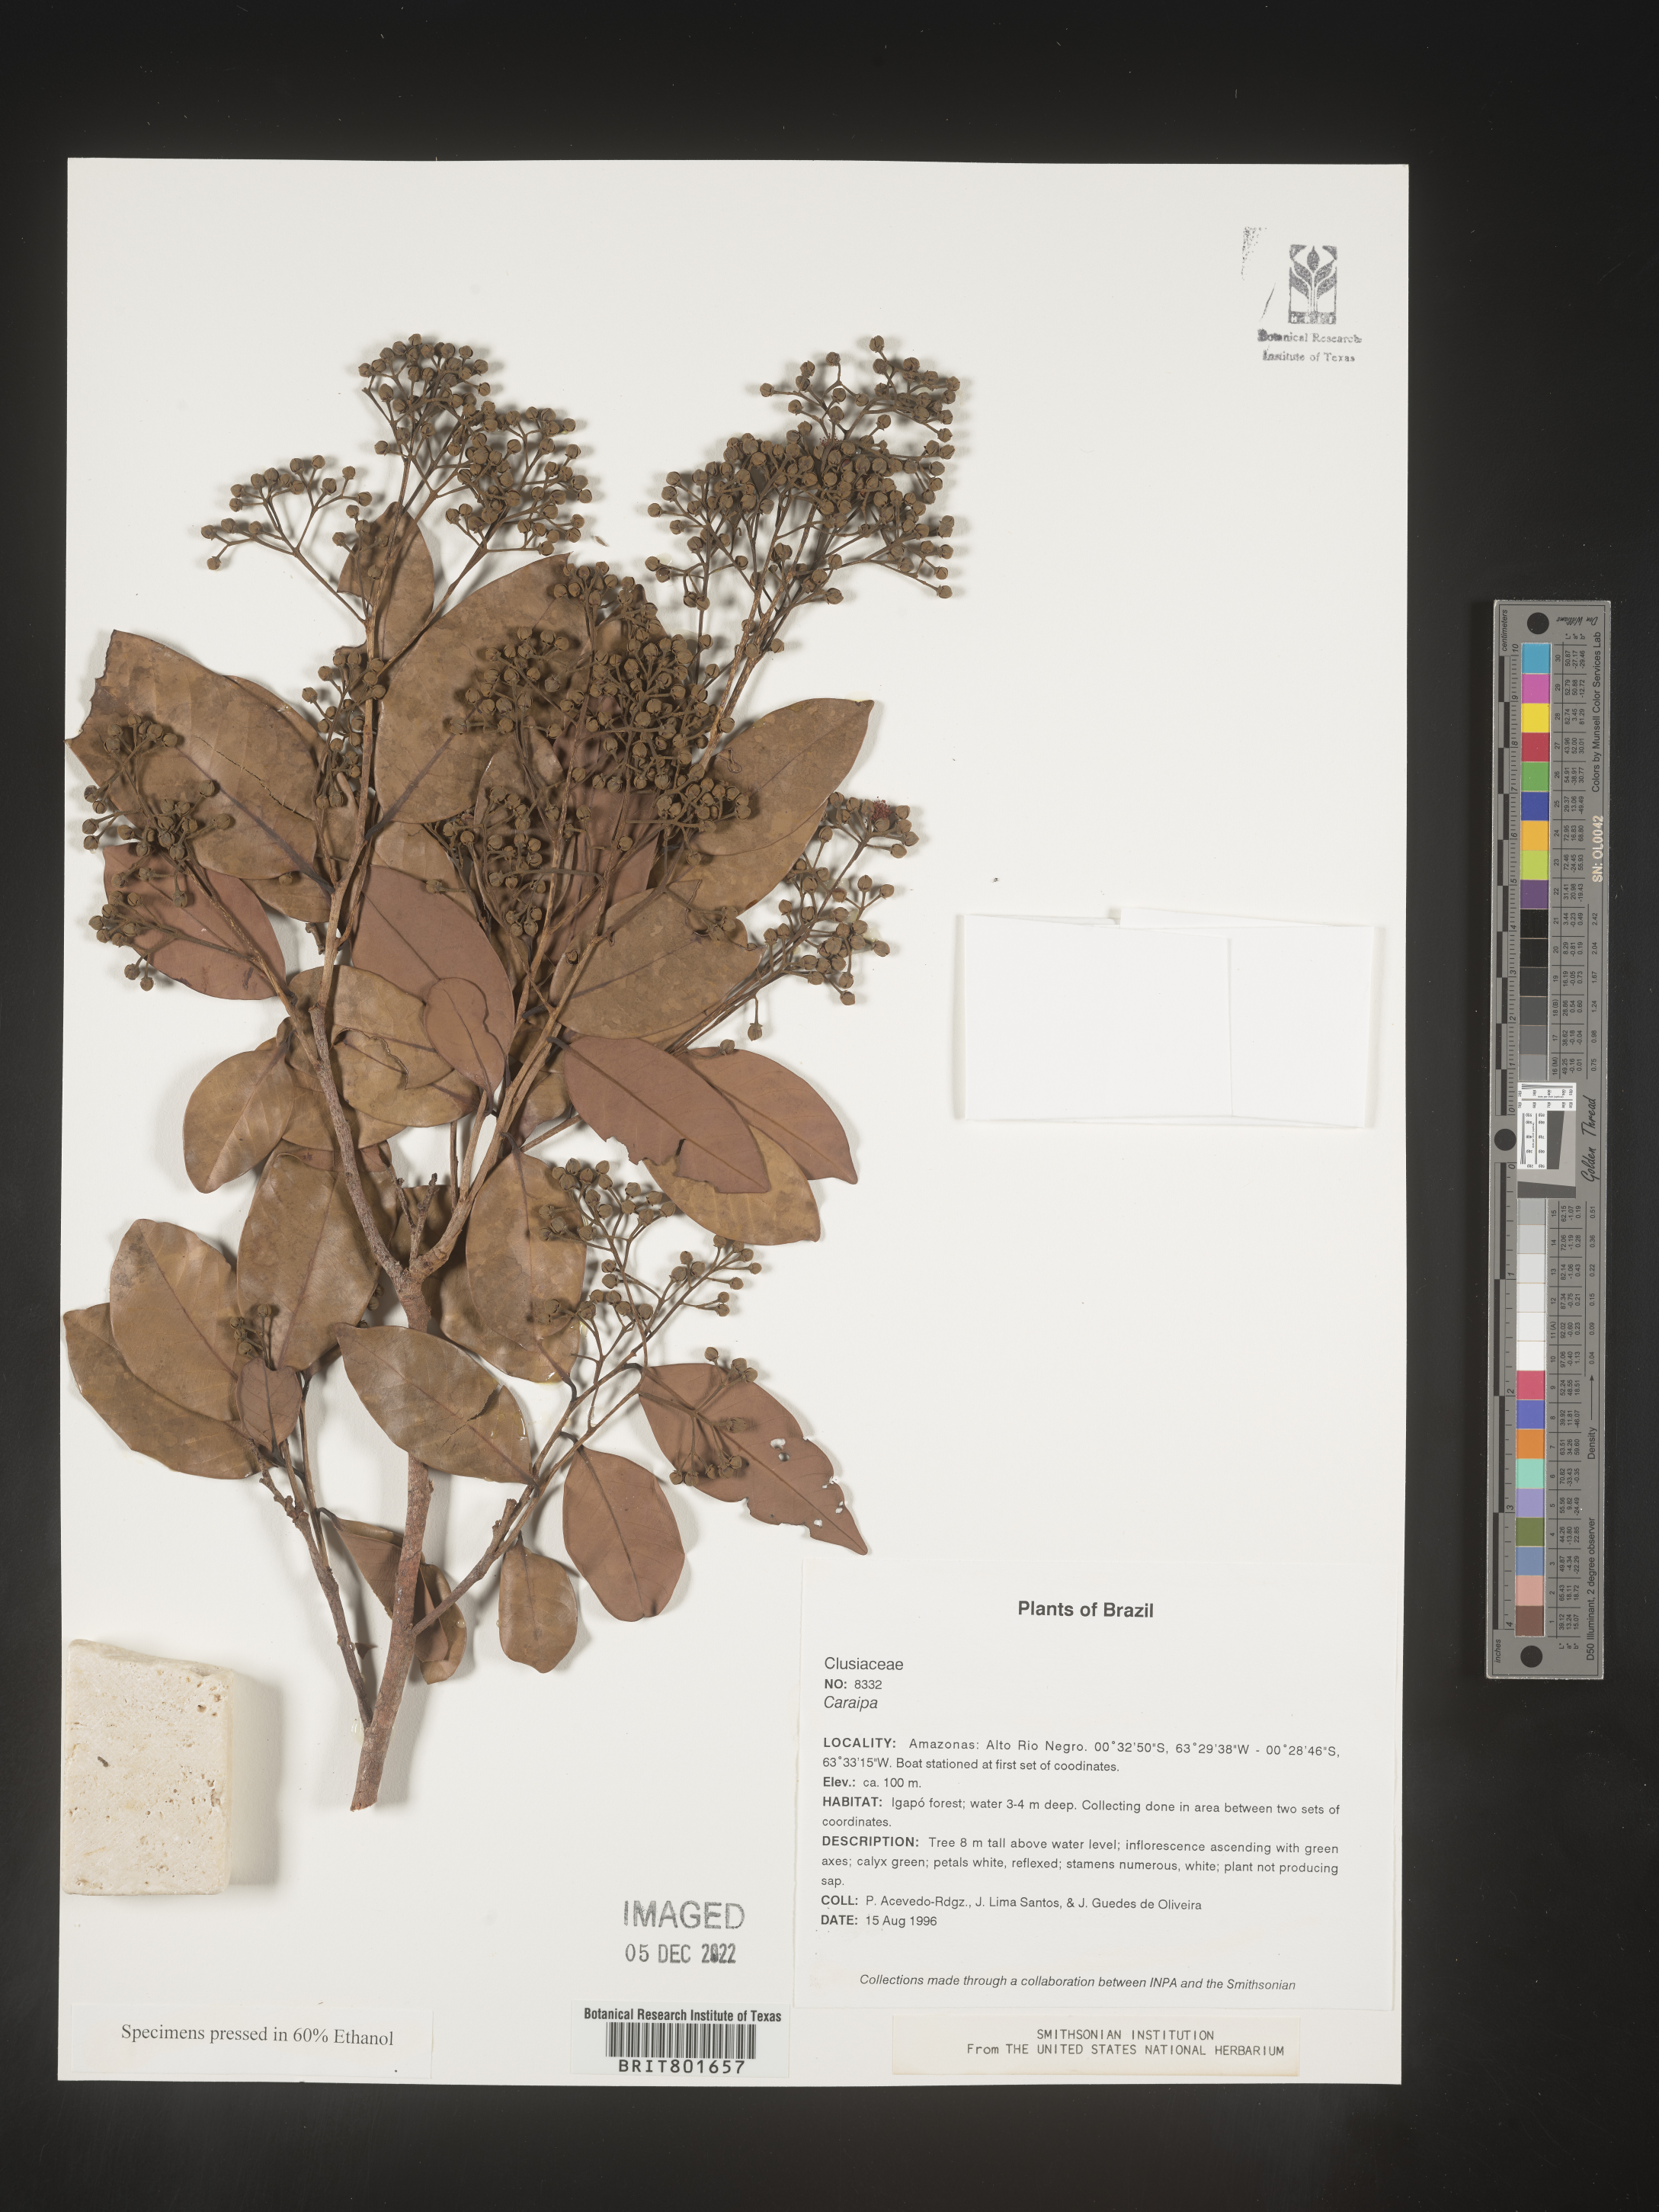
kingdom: Plantae
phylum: Tracheophyta
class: Magnoliopsida
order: Malpighiales
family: Calophyllaceae
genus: Caraipa
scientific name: Caraipa
